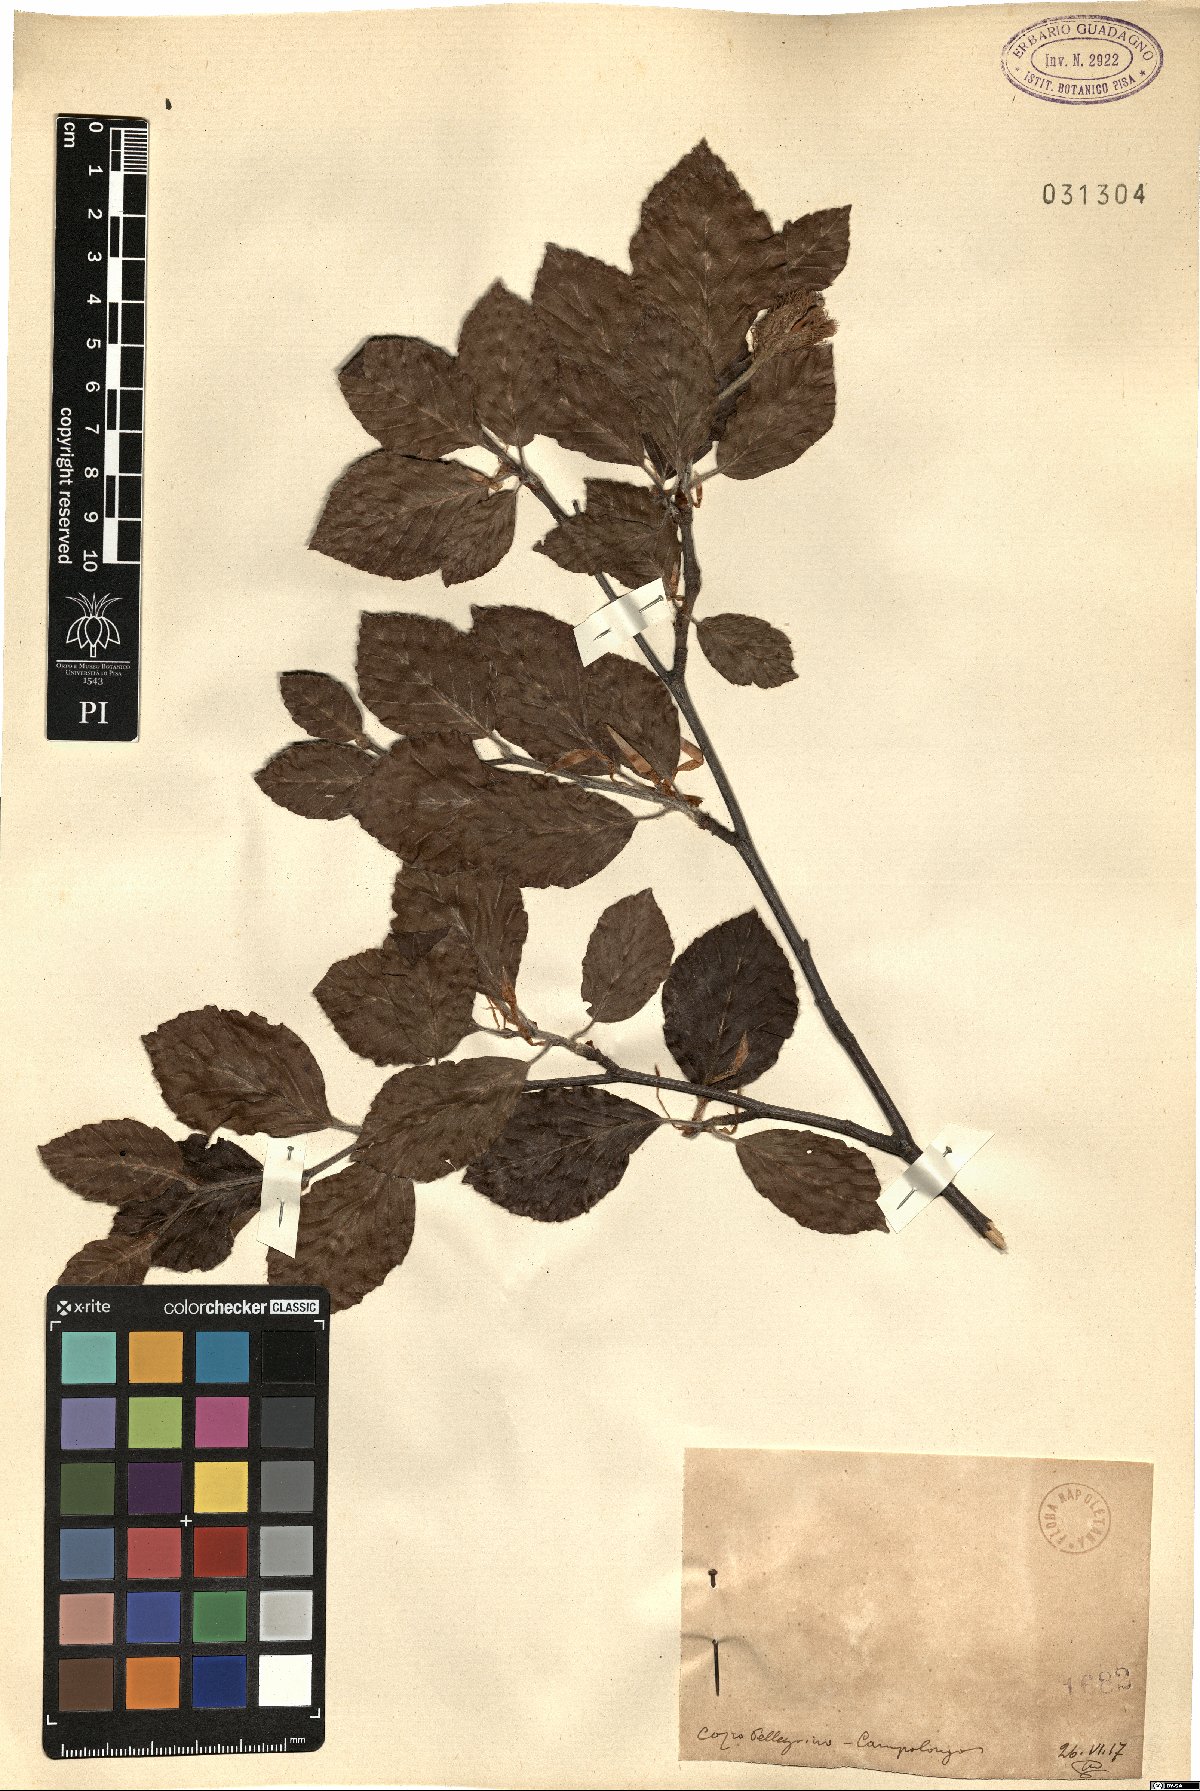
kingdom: Plantae
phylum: Tracheophyta
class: Magnoliopsida
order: Fagales
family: Fagaceae
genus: Fagus
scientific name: Fagus
